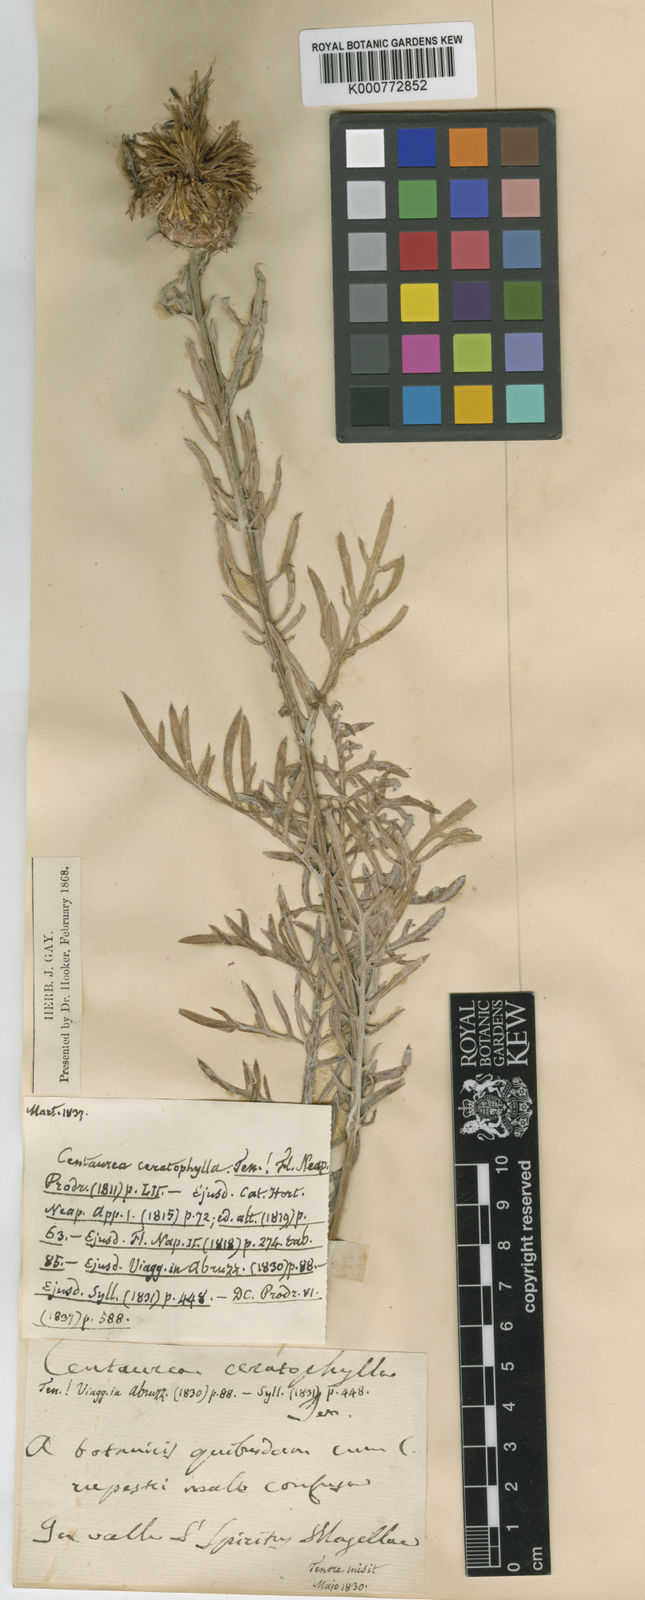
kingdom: Plantae
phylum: Tracheophyta
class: Magnoliopsida
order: Asterales
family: Asteraceae
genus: Centaurea
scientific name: Centaurea rupestris
